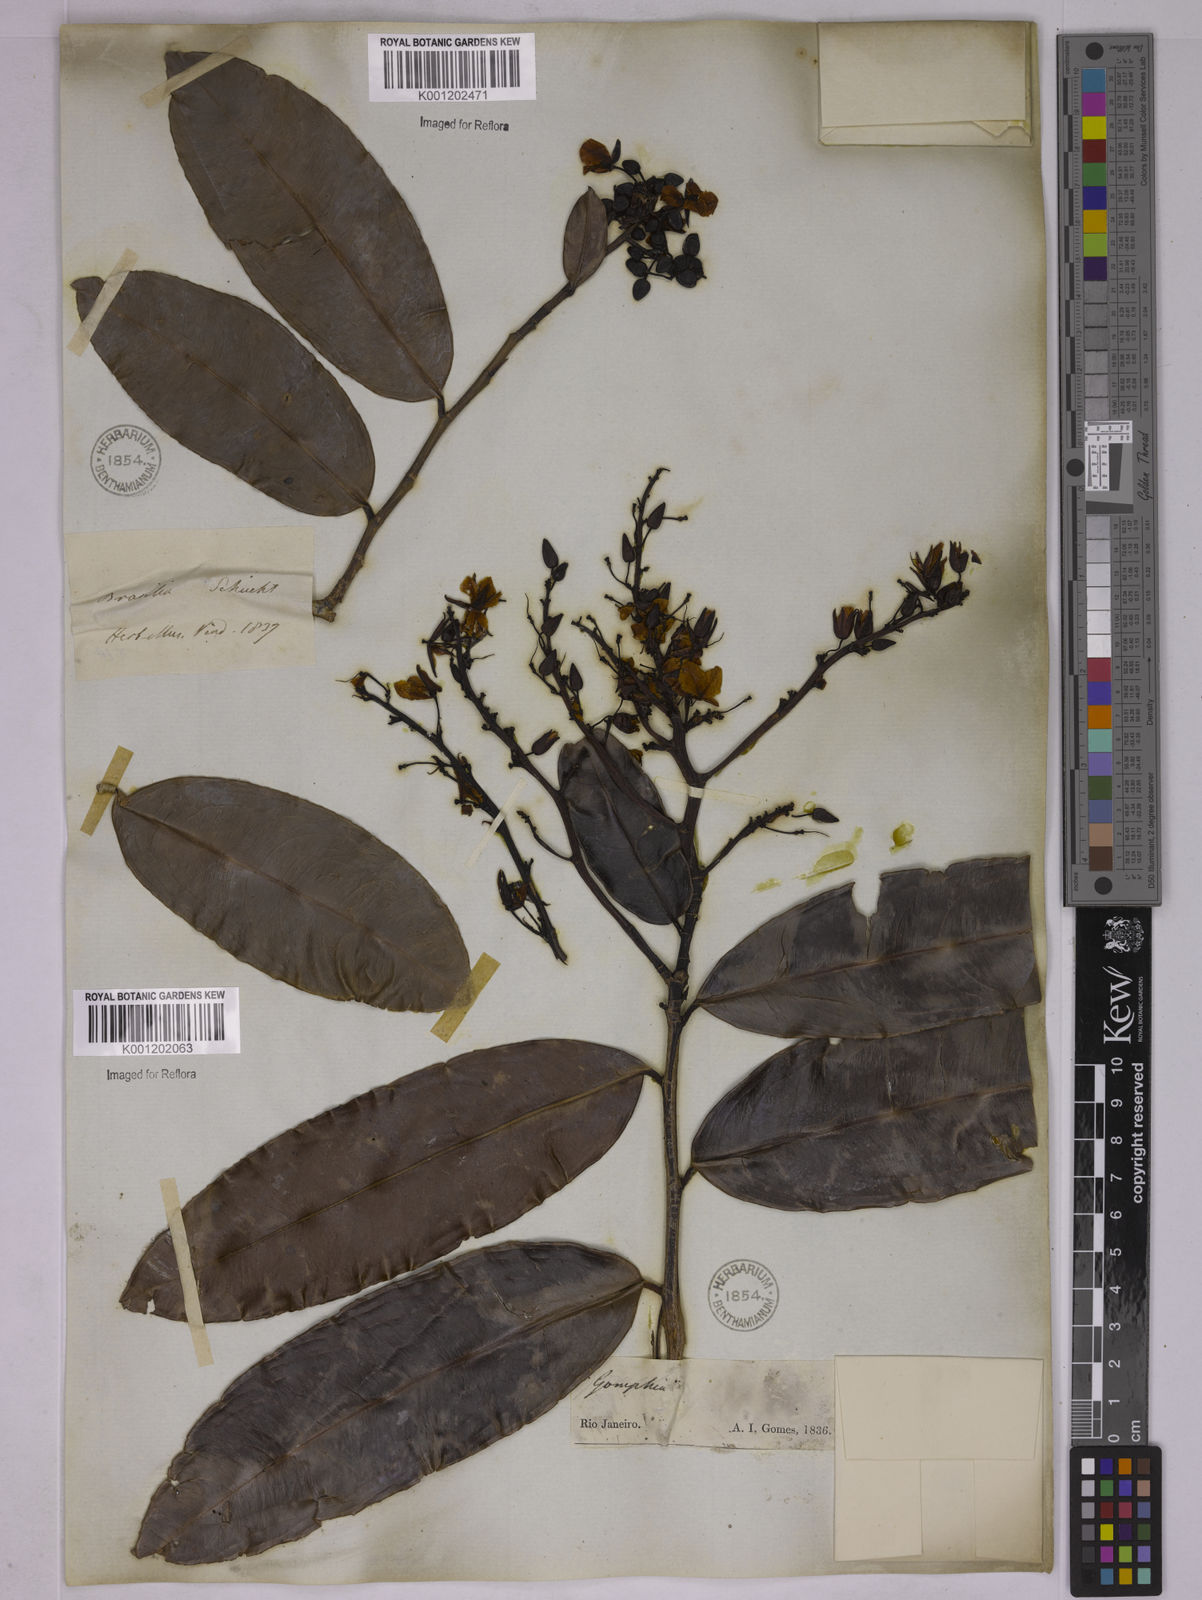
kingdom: Plantae
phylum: Tracheophyta
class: Magnoliopsida
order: Malpighiales
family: Ochnaceae
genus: Ouratea
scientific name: Ouratea cuspidata
